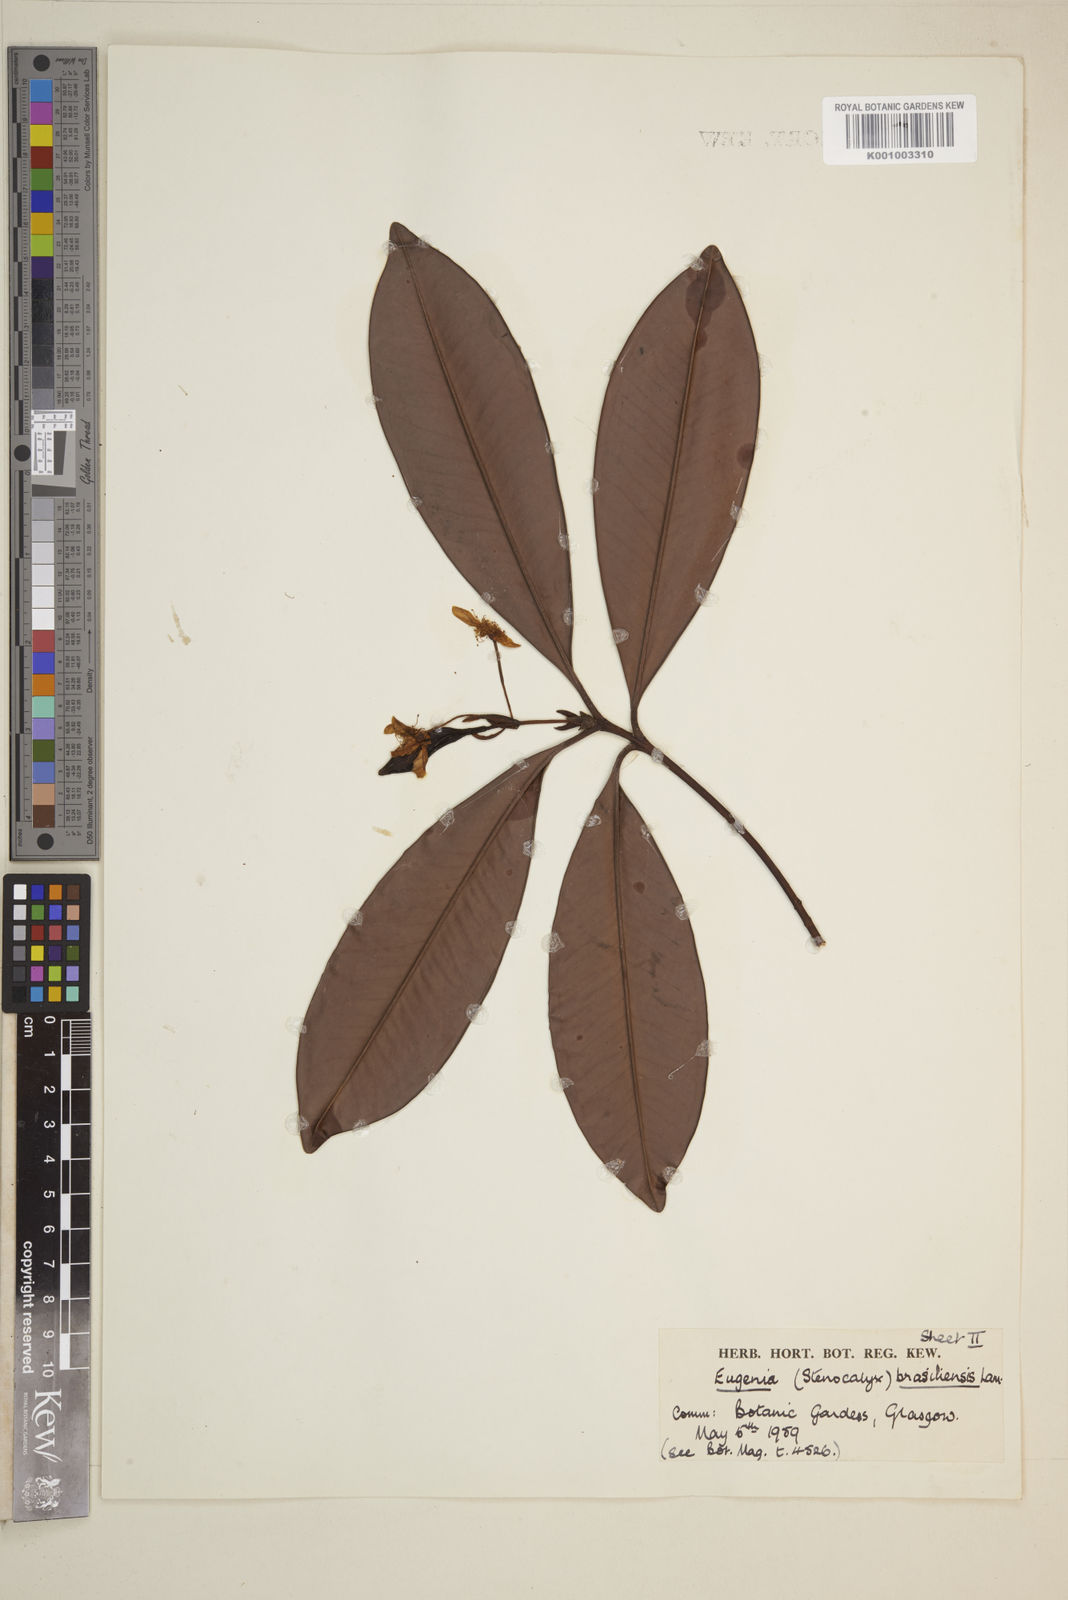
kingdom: Plantae
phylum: Tracheophyta
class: Magnoliopsida
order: Myrtales
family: Myrtaceae
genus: Eugenia
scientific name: Eugenia
